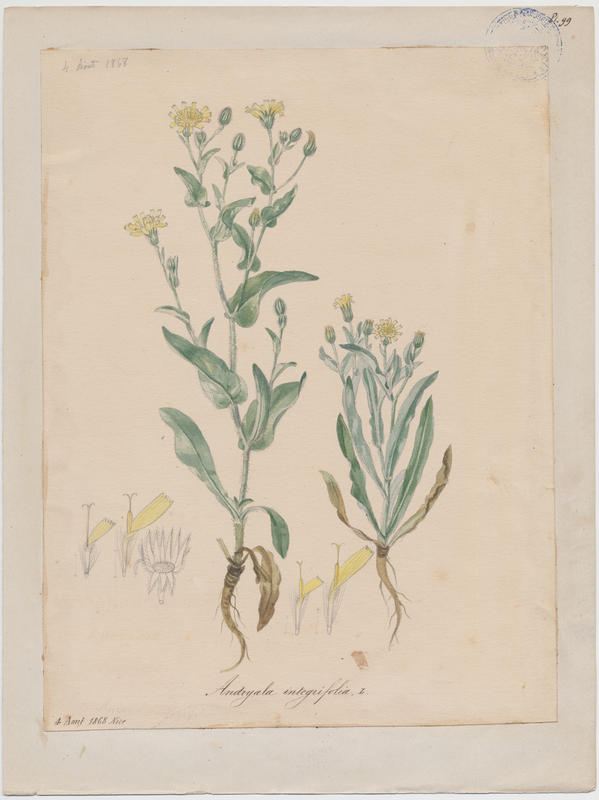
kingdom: Plantae
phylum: Tracheophyta
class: Magnoliopsida
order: Asterales
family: Asteraceae
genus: Andryala
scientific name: Andryala integrifolia
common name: Common andryala
